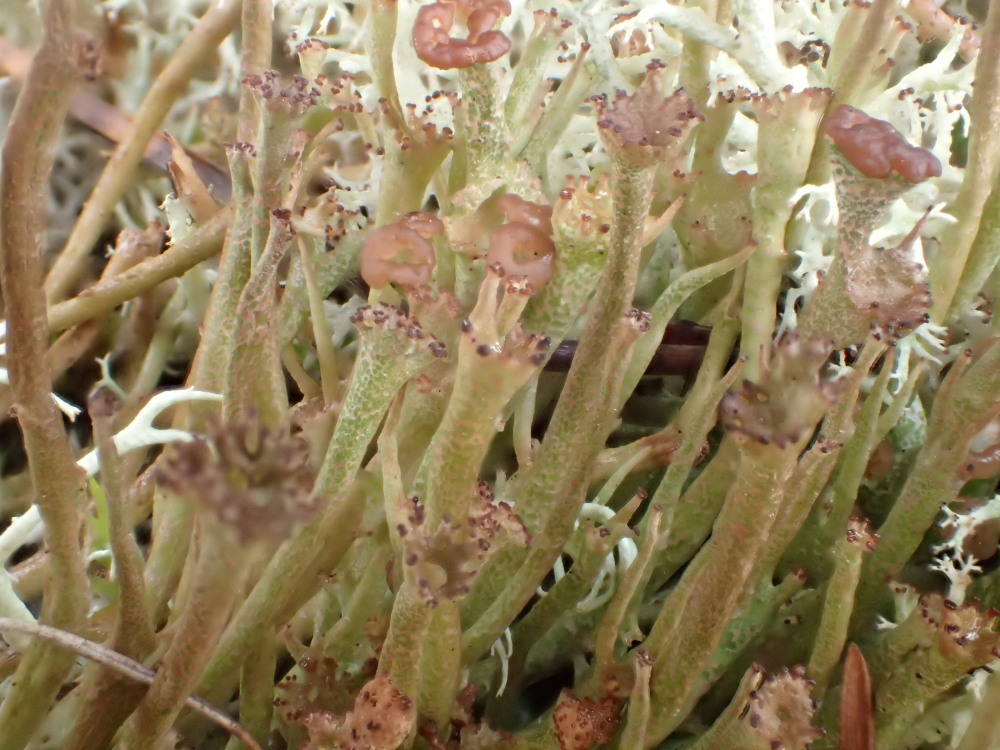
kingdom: Fungi
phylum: Ascomycota
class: Lecanoromycetes
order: Lecanorales
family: Cladoniaceae
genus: Cladonia
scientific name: Cladonia gracilis
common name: slank bægerlav
